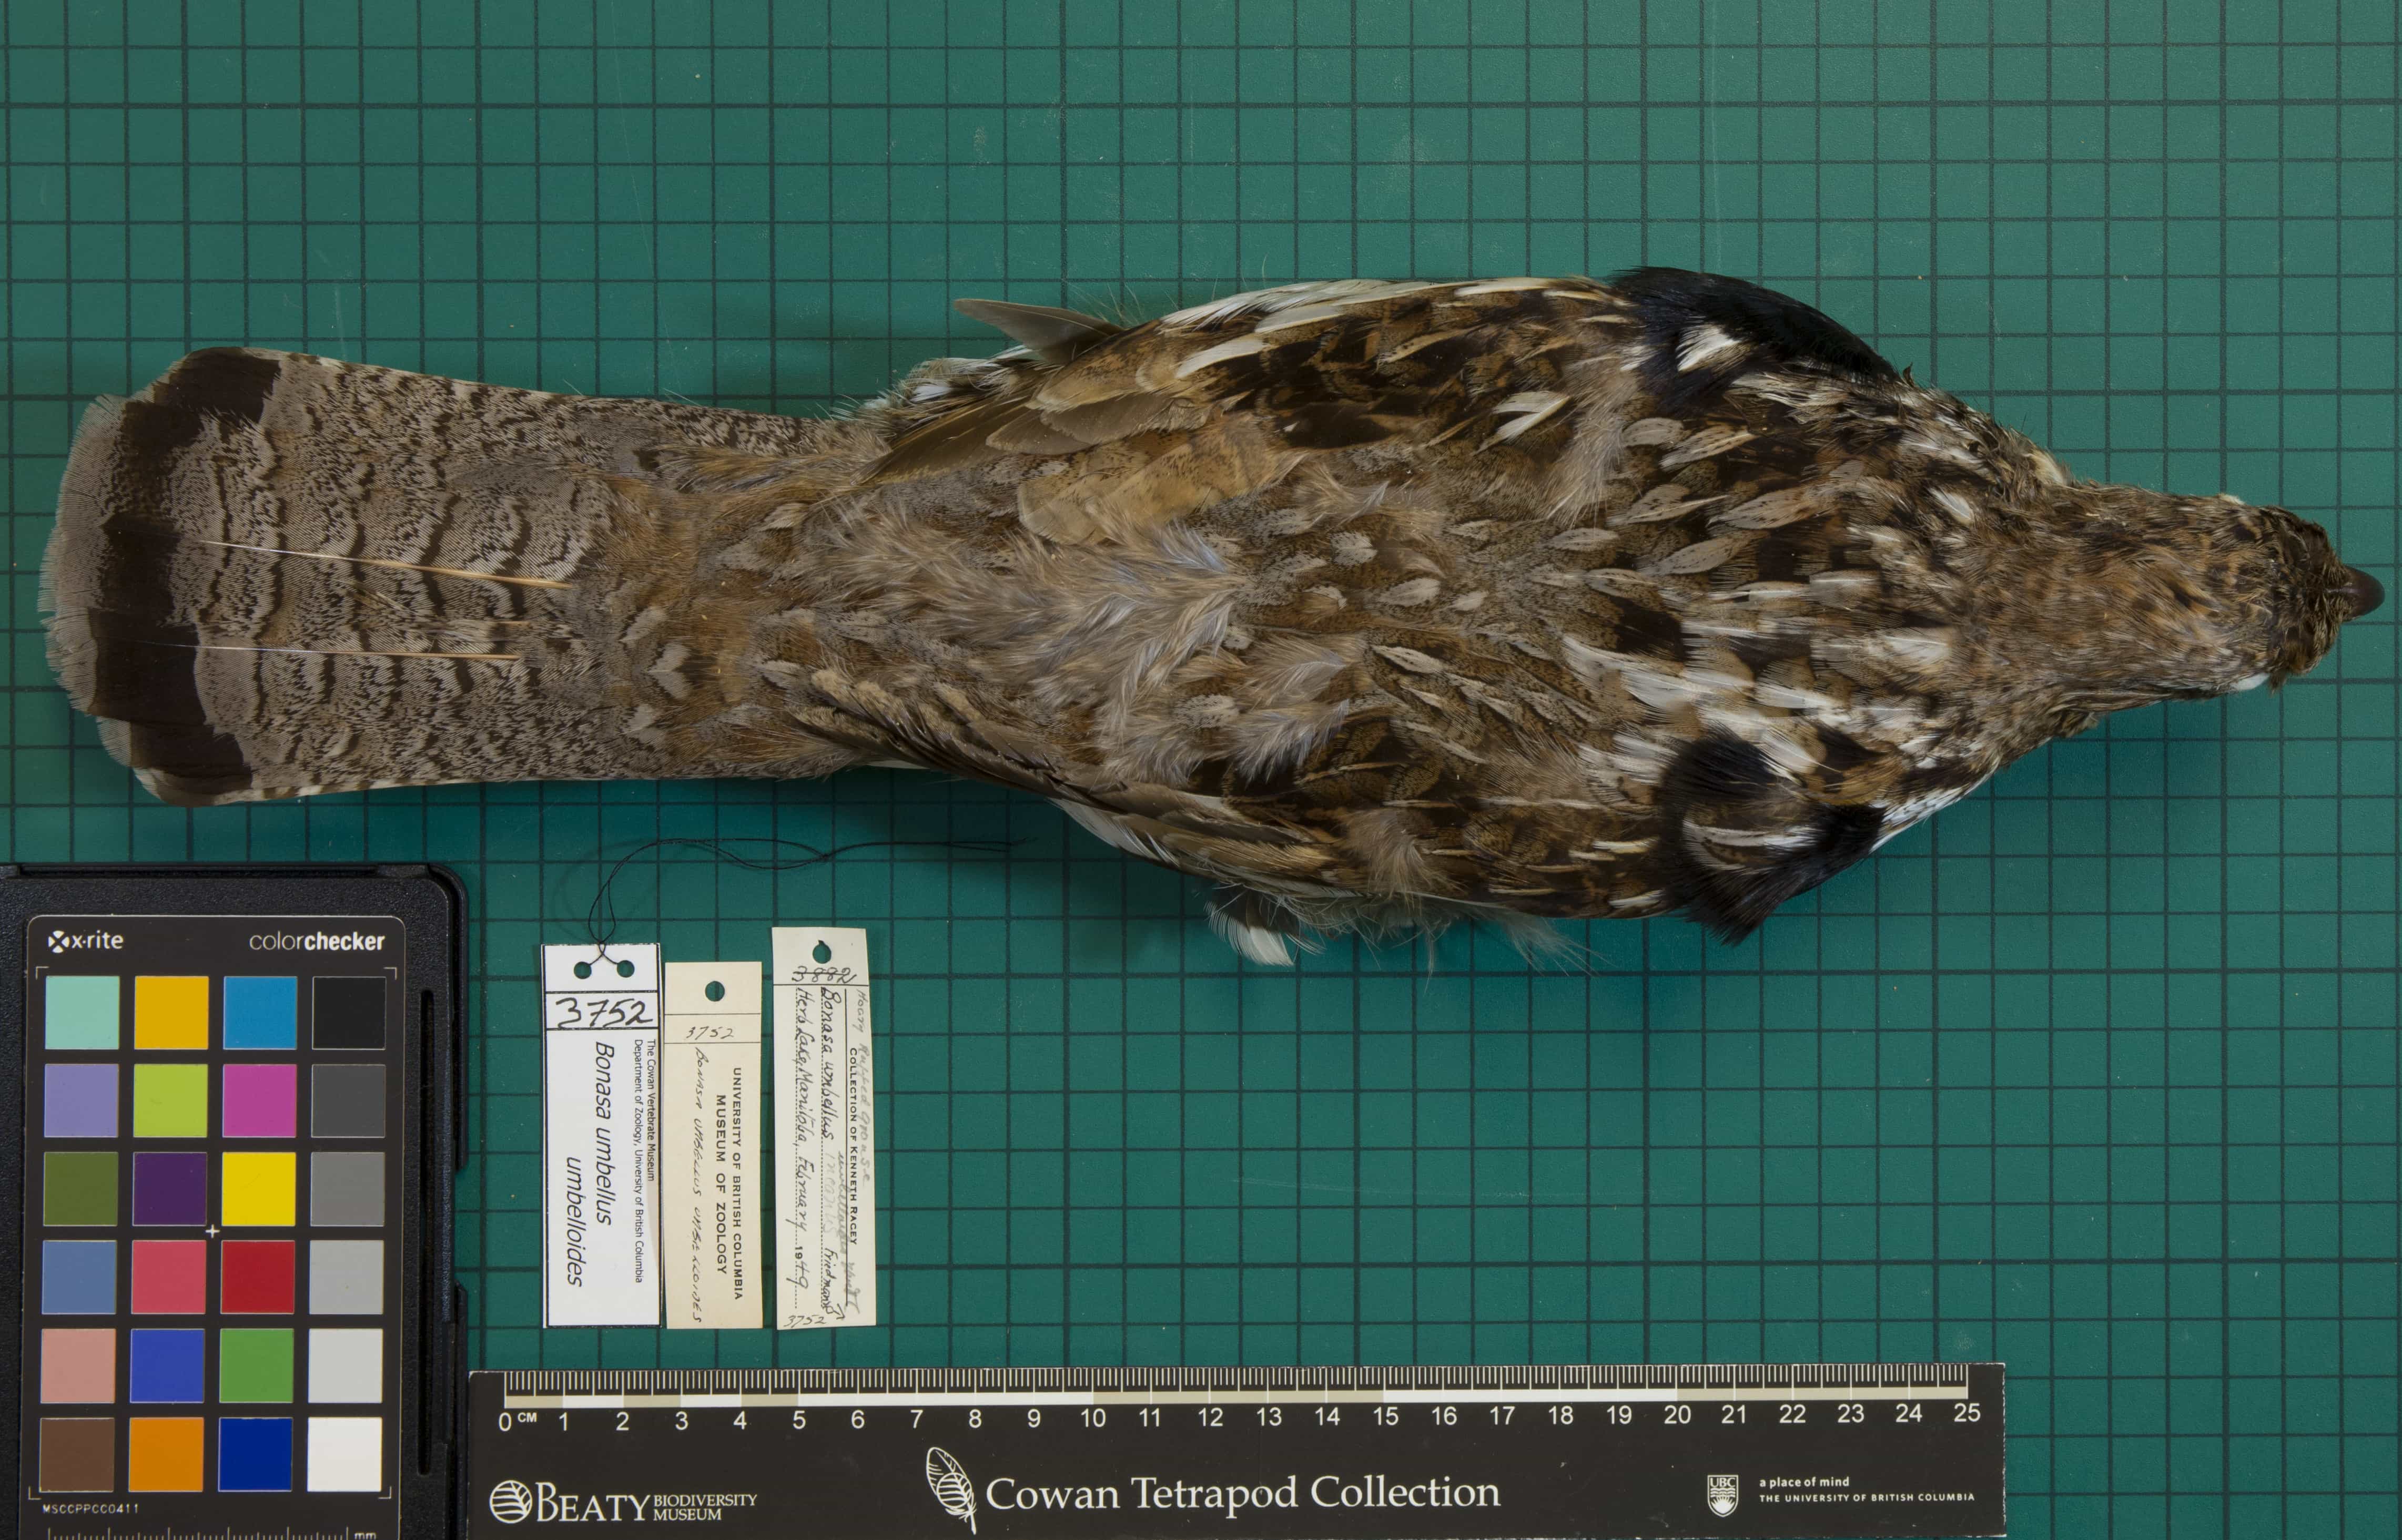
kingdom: Animalia
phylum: Chordata
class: Aves
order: Galliformes
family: Phasianidae
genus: Bonasa
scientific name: Bonasa umbellus
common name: Ruffed Grouse
